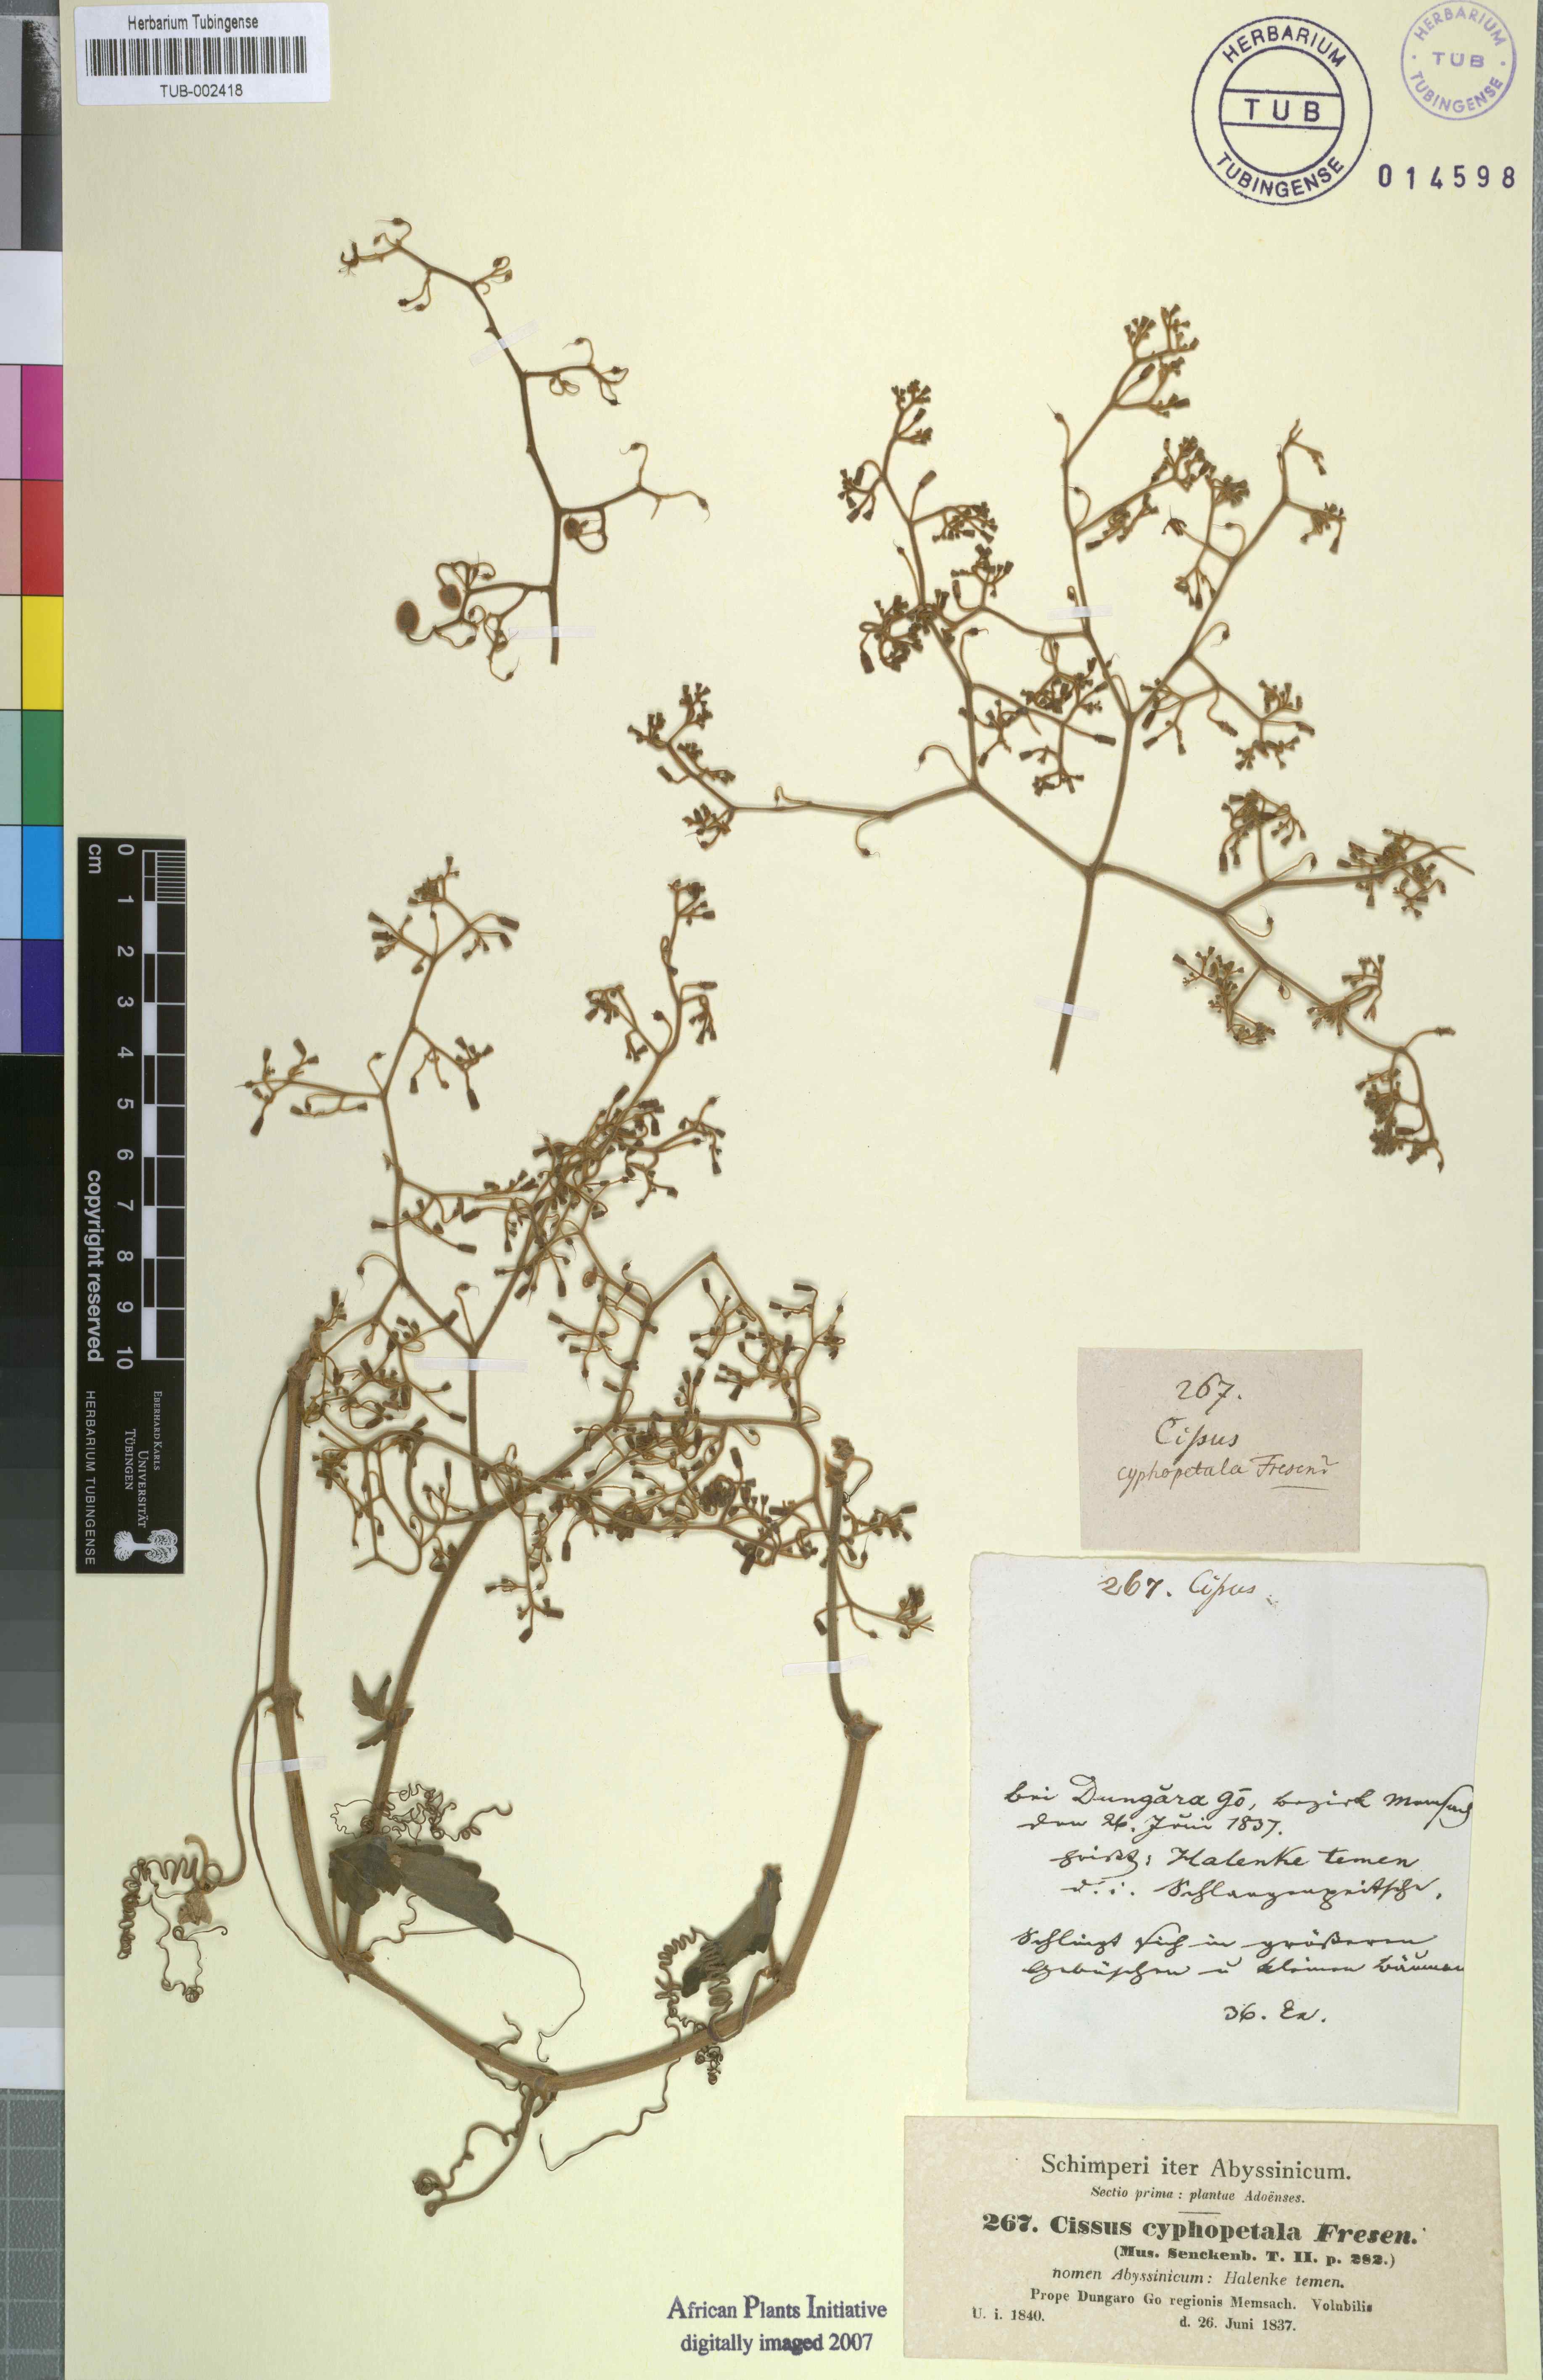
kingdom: Plantae
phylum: Tracheophyta
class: Magnoliopsida
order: Vitales
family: Vitaceae
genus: Cyphostemma
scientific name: Cyphostemma cyphopetalum
